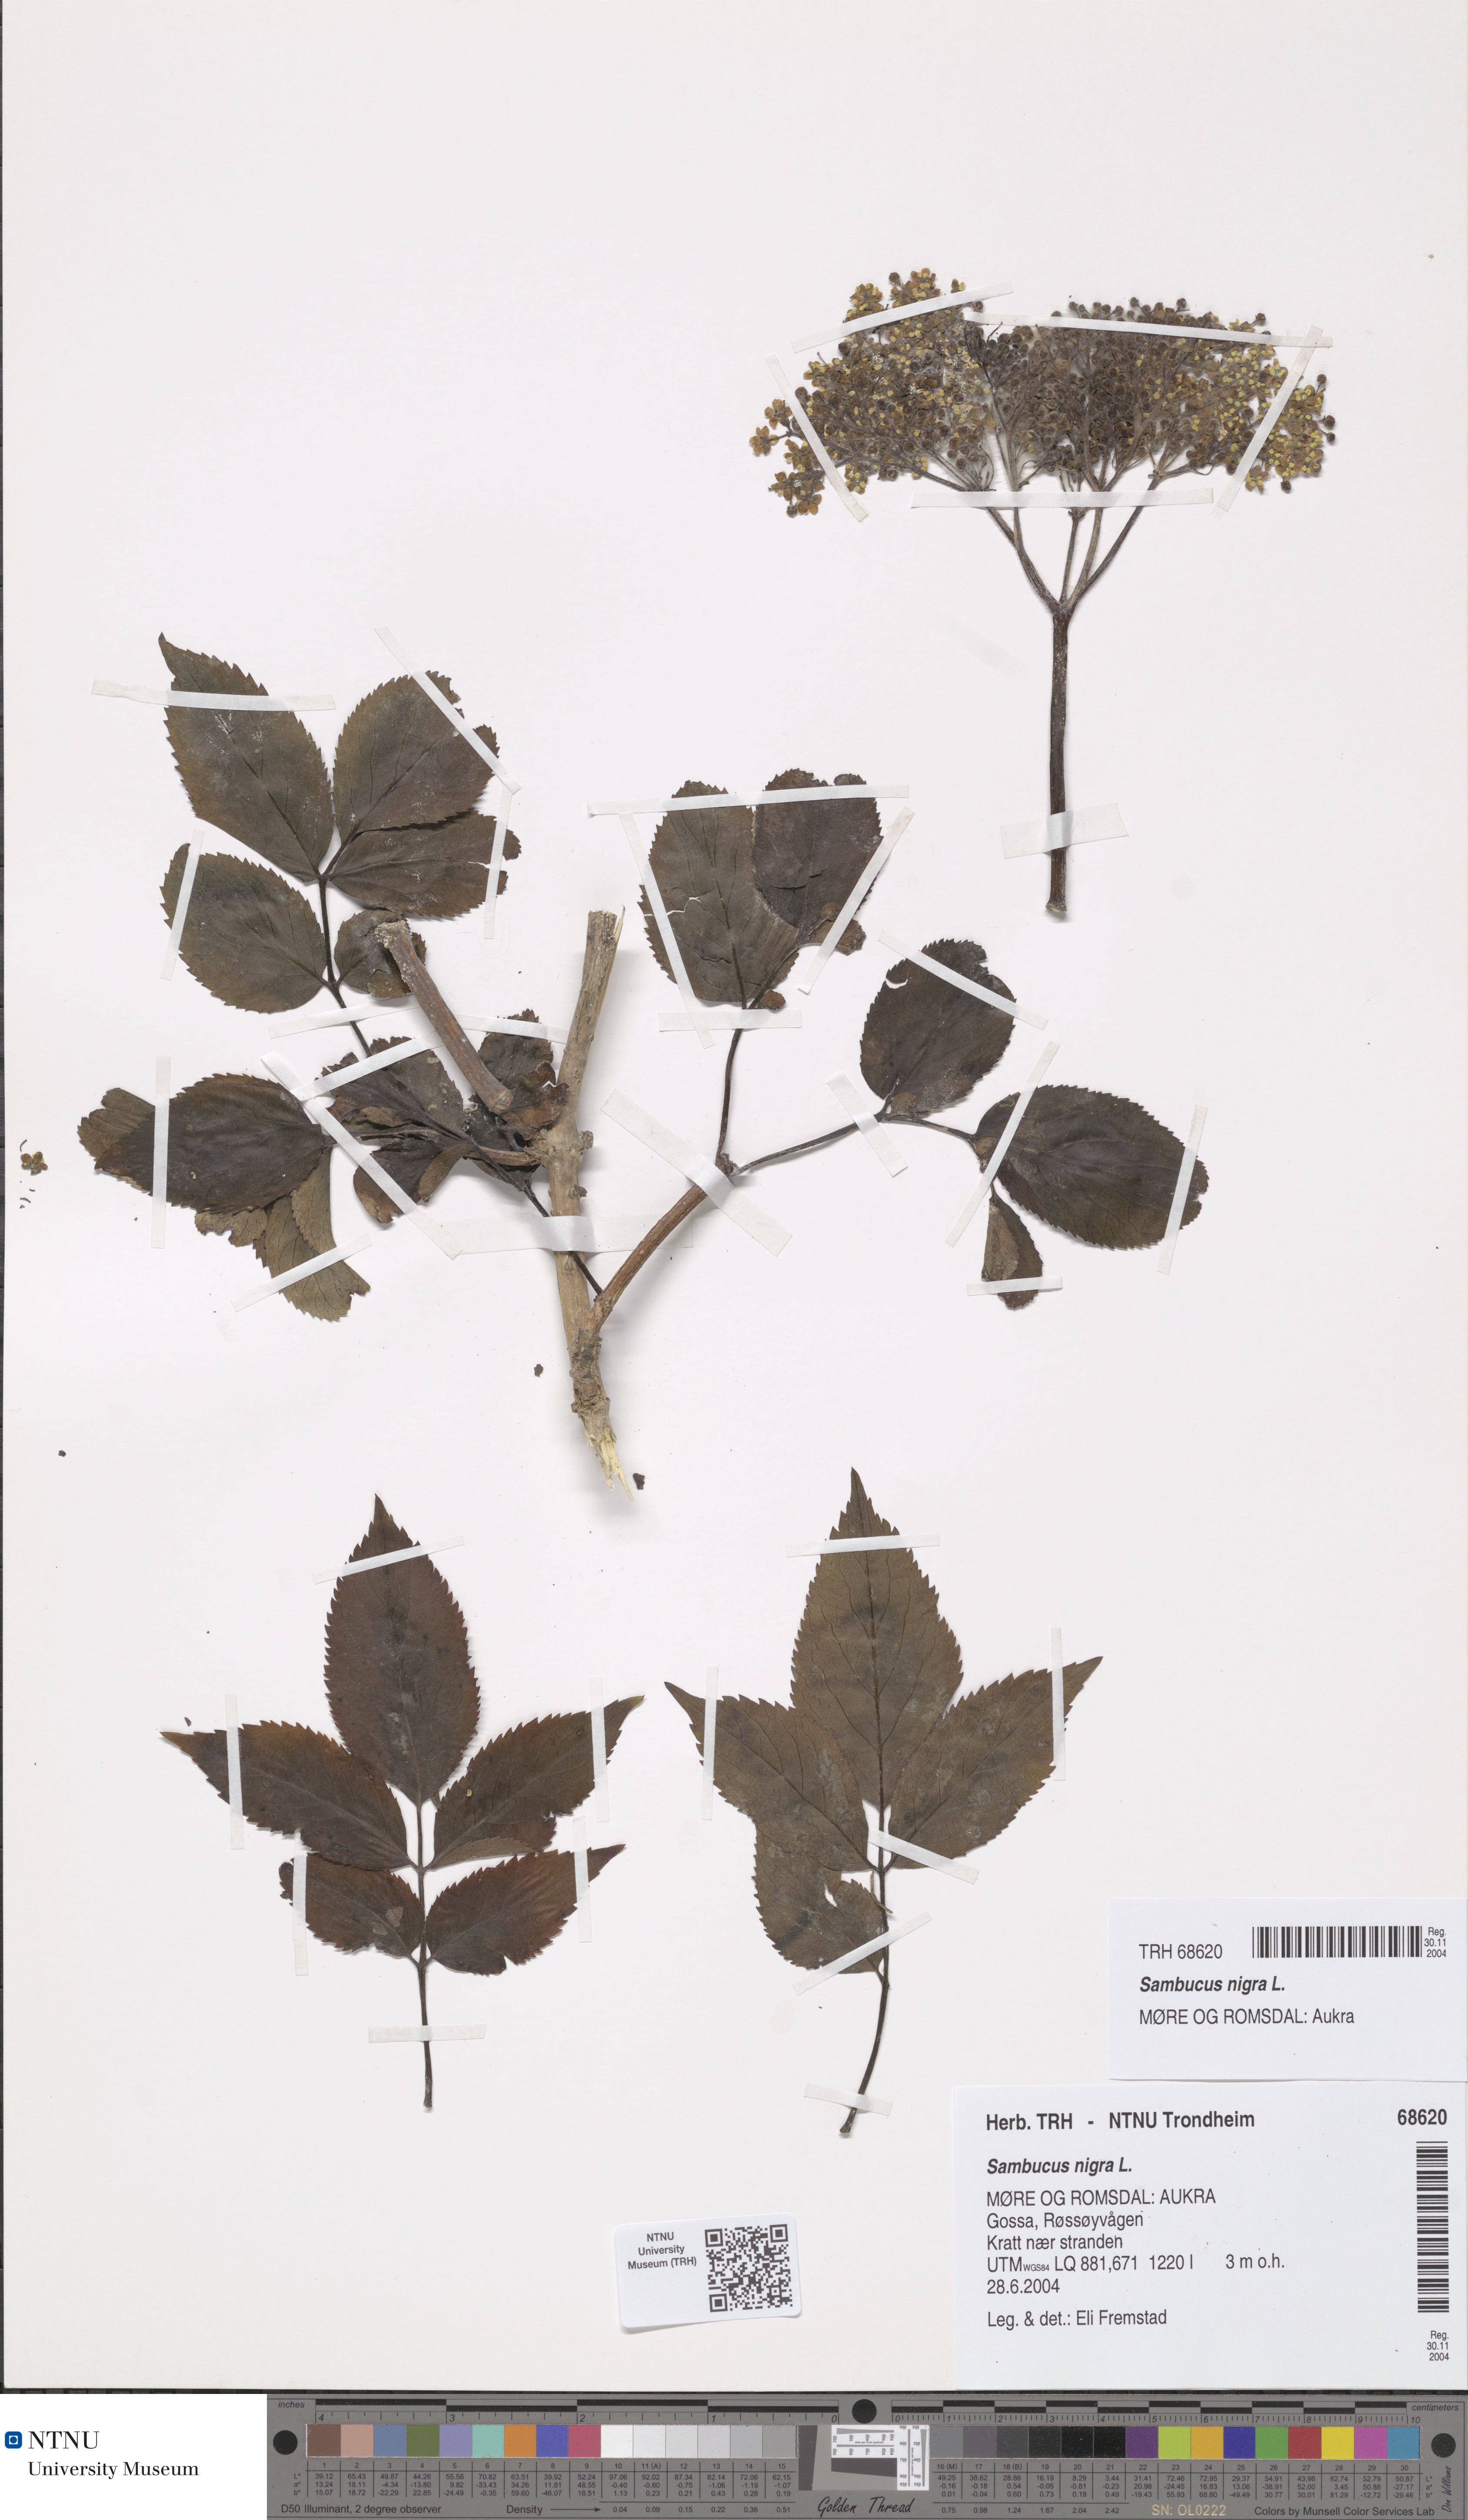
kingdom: Plantae
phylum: Tracheophyta
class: Magnoliopsida
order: Dipsacales
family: Viburnaceae
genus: Sambucus
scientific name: Sambucus nigra
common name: Elder
